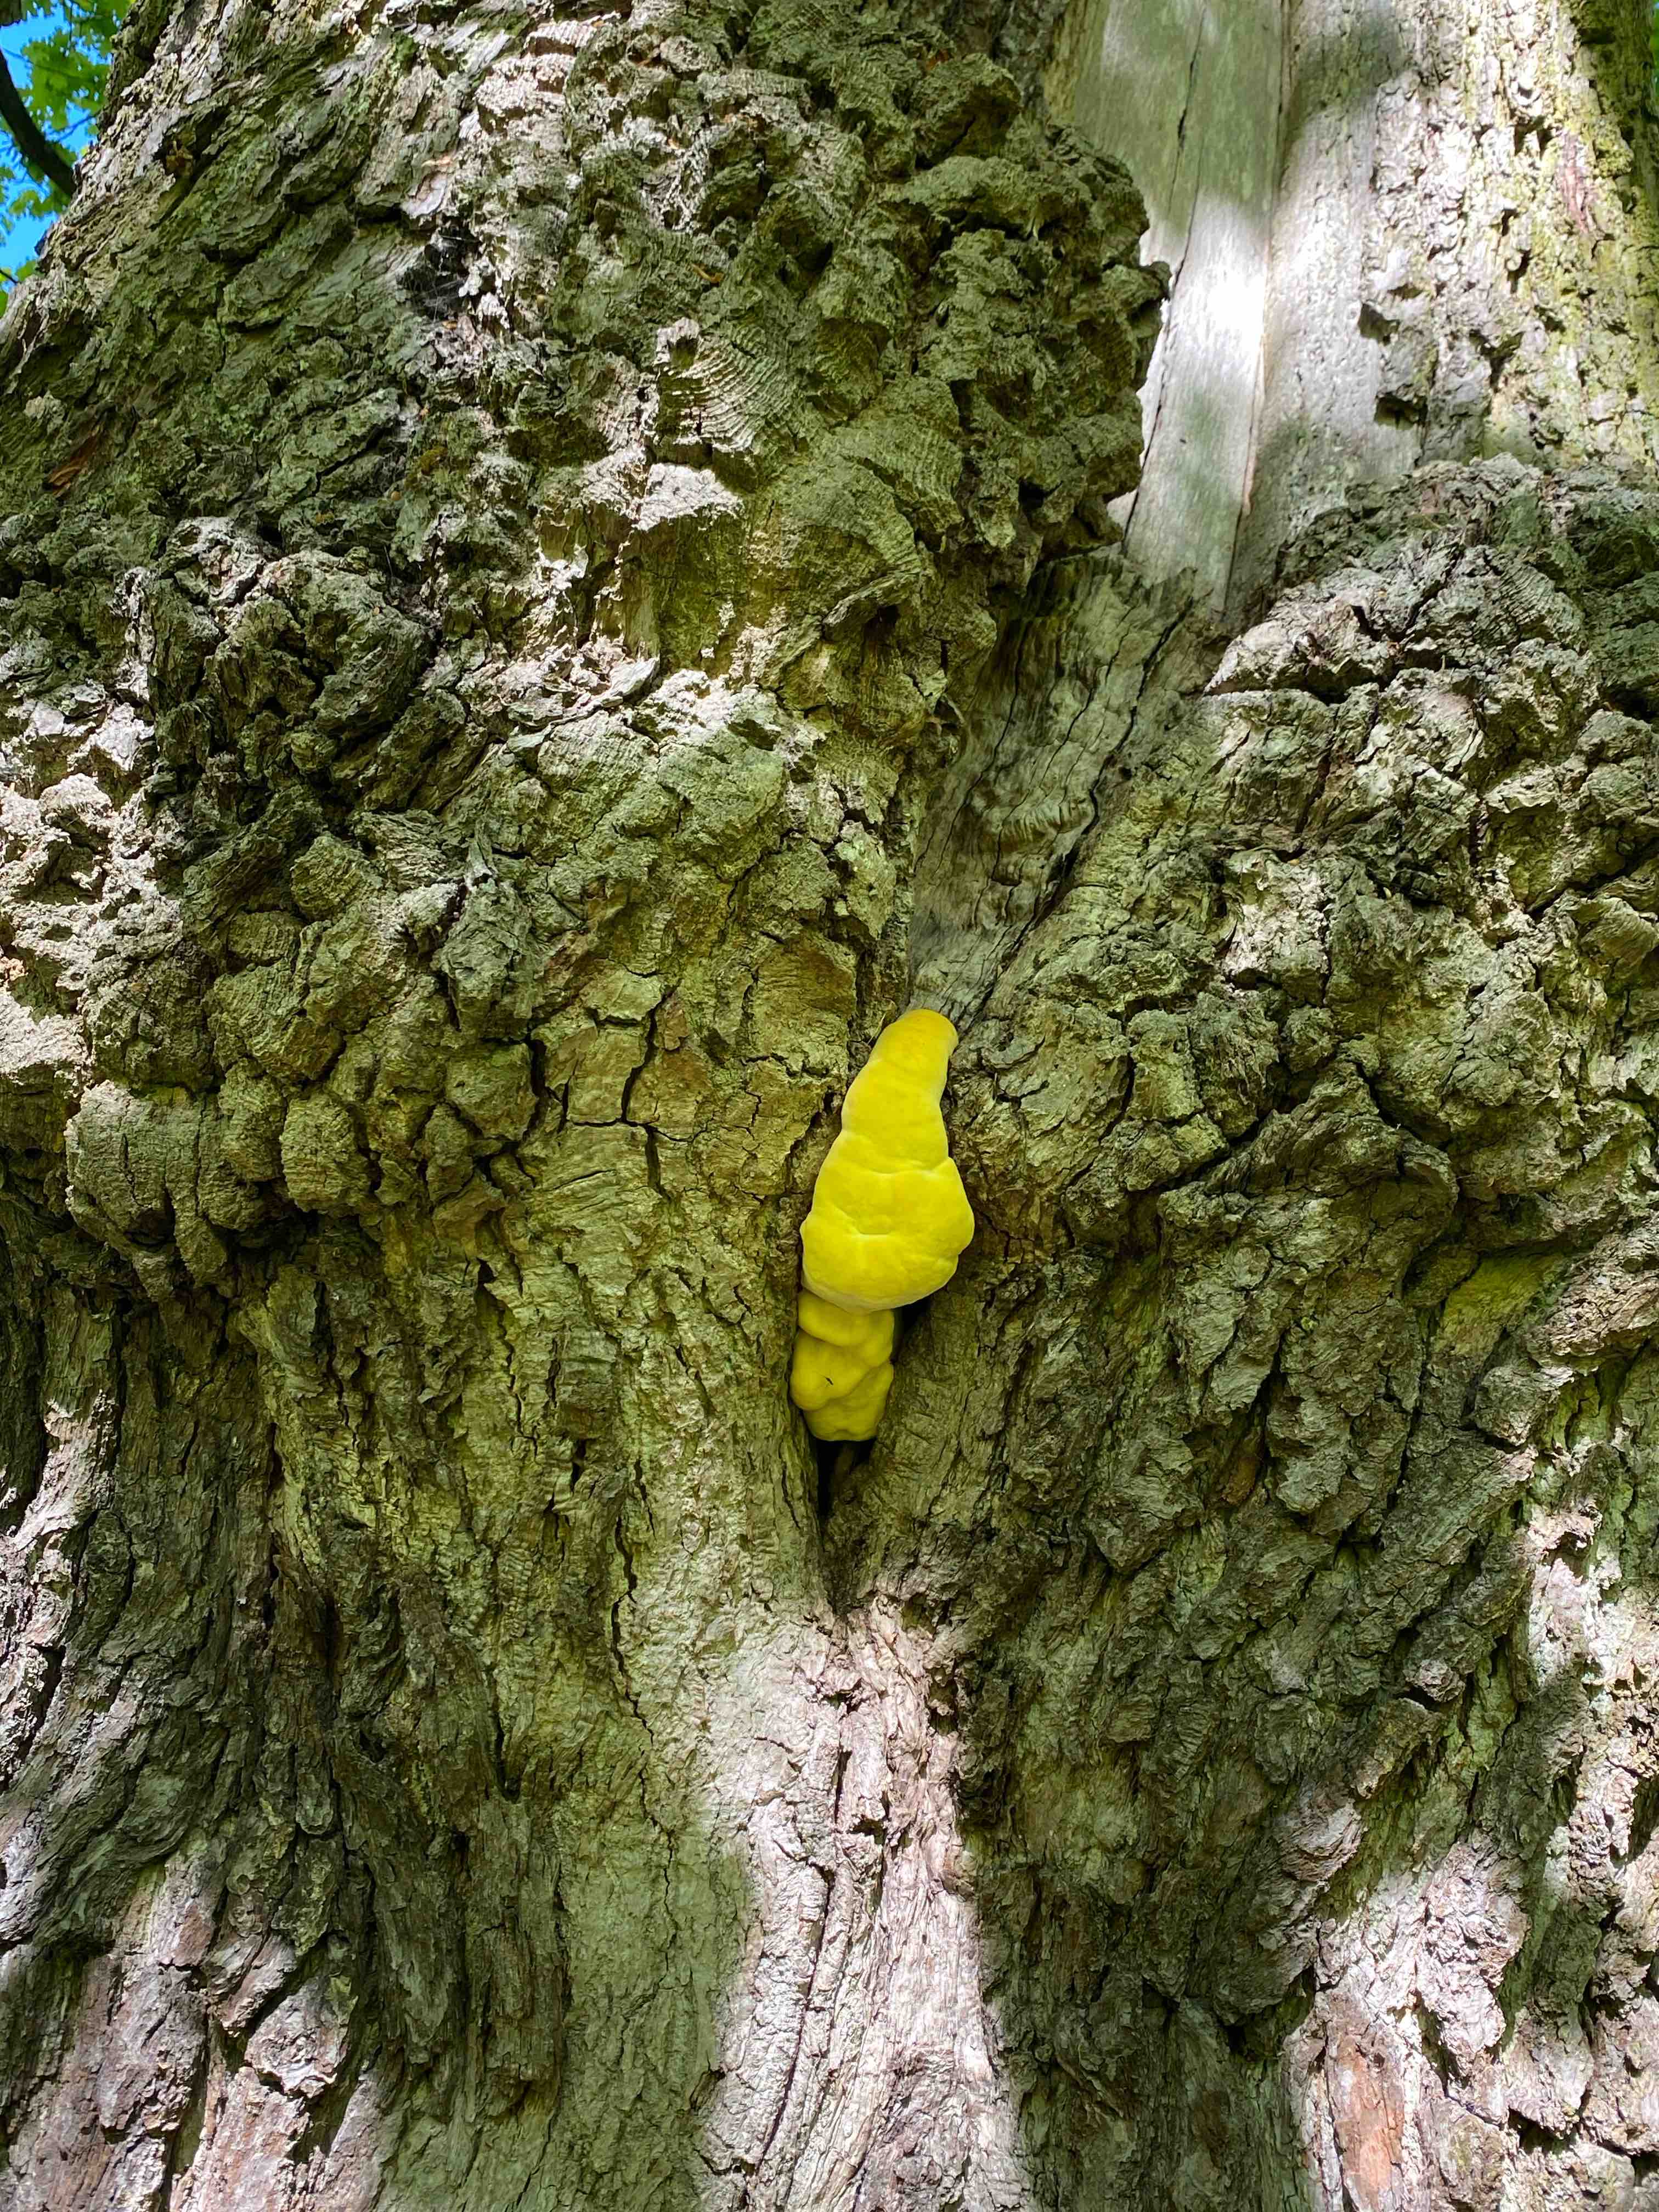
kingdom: Fungi
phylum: Basidiomycota
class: Agaricomycetes
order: Polyporales
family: Laetiporaceae
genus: Laetiporus
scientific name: Laetiporus sulphureus
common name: svovlporesvamp
